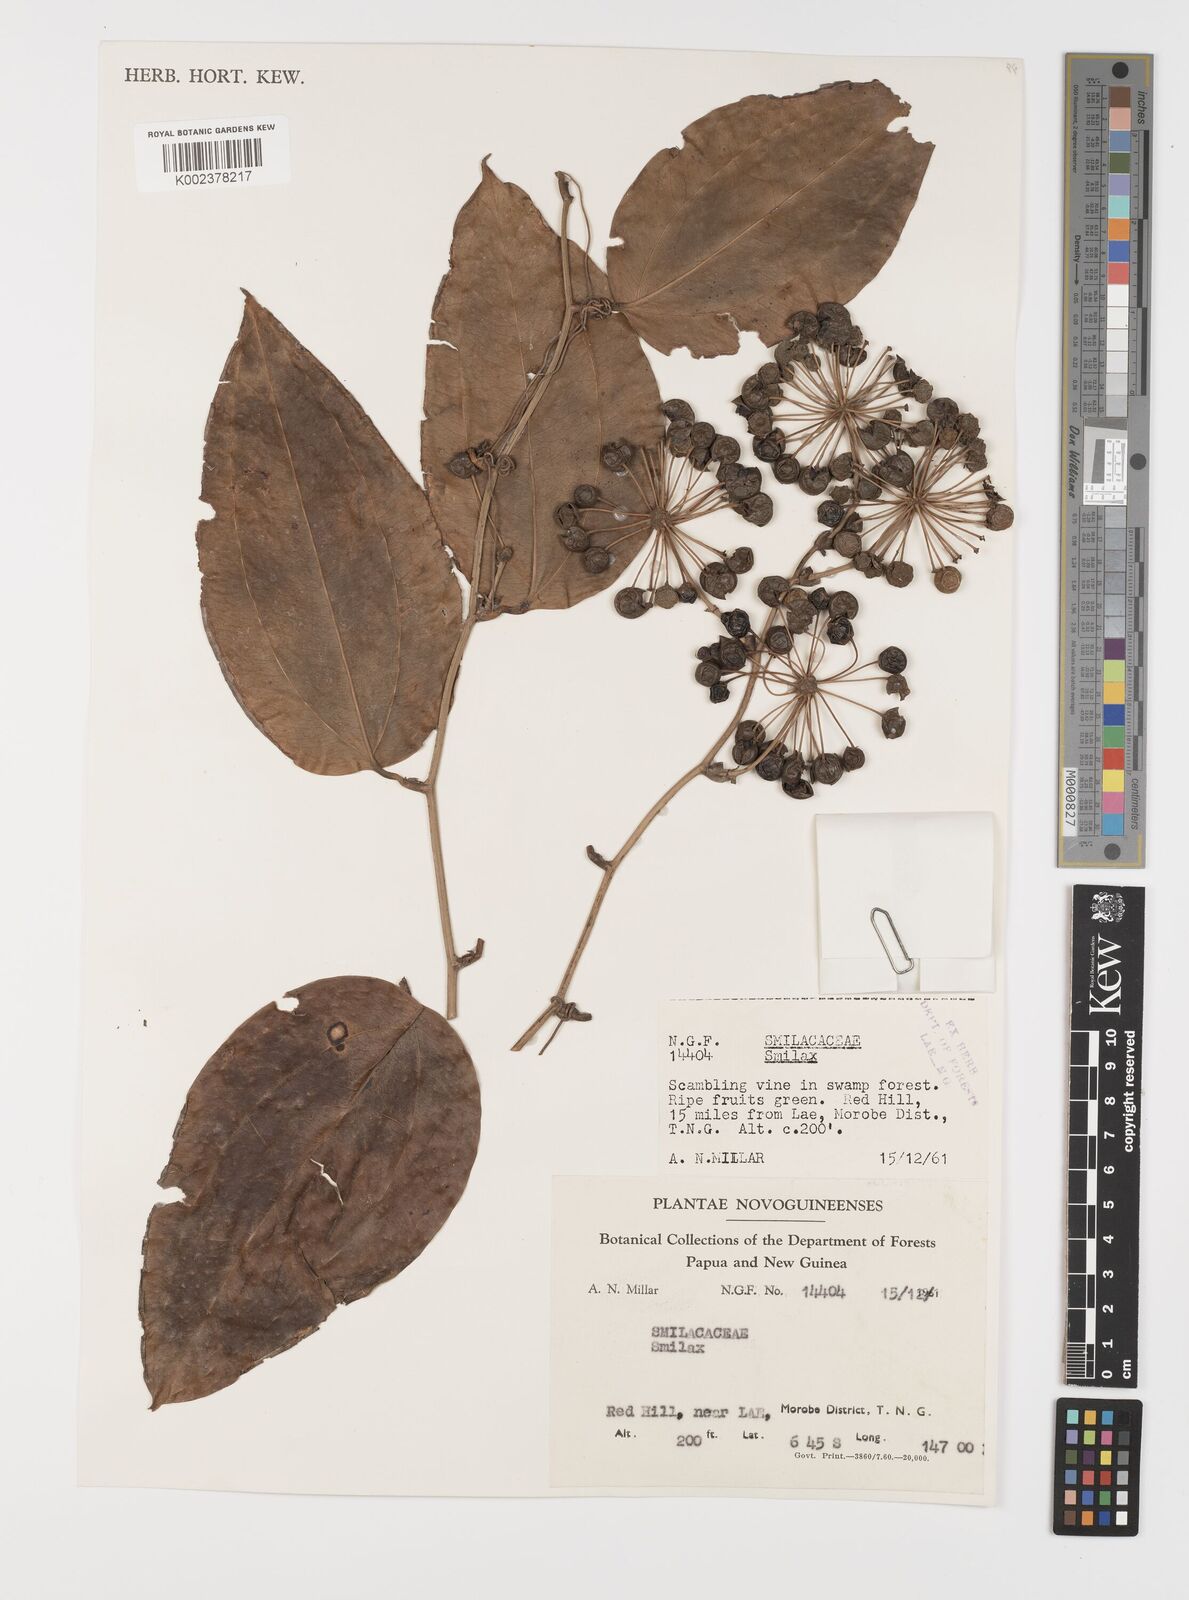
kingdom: Plantae
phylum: Tracheophyta
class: Liliopsida
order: Liliales
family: Smilacaceae
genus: Smilax
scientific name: Smilax
